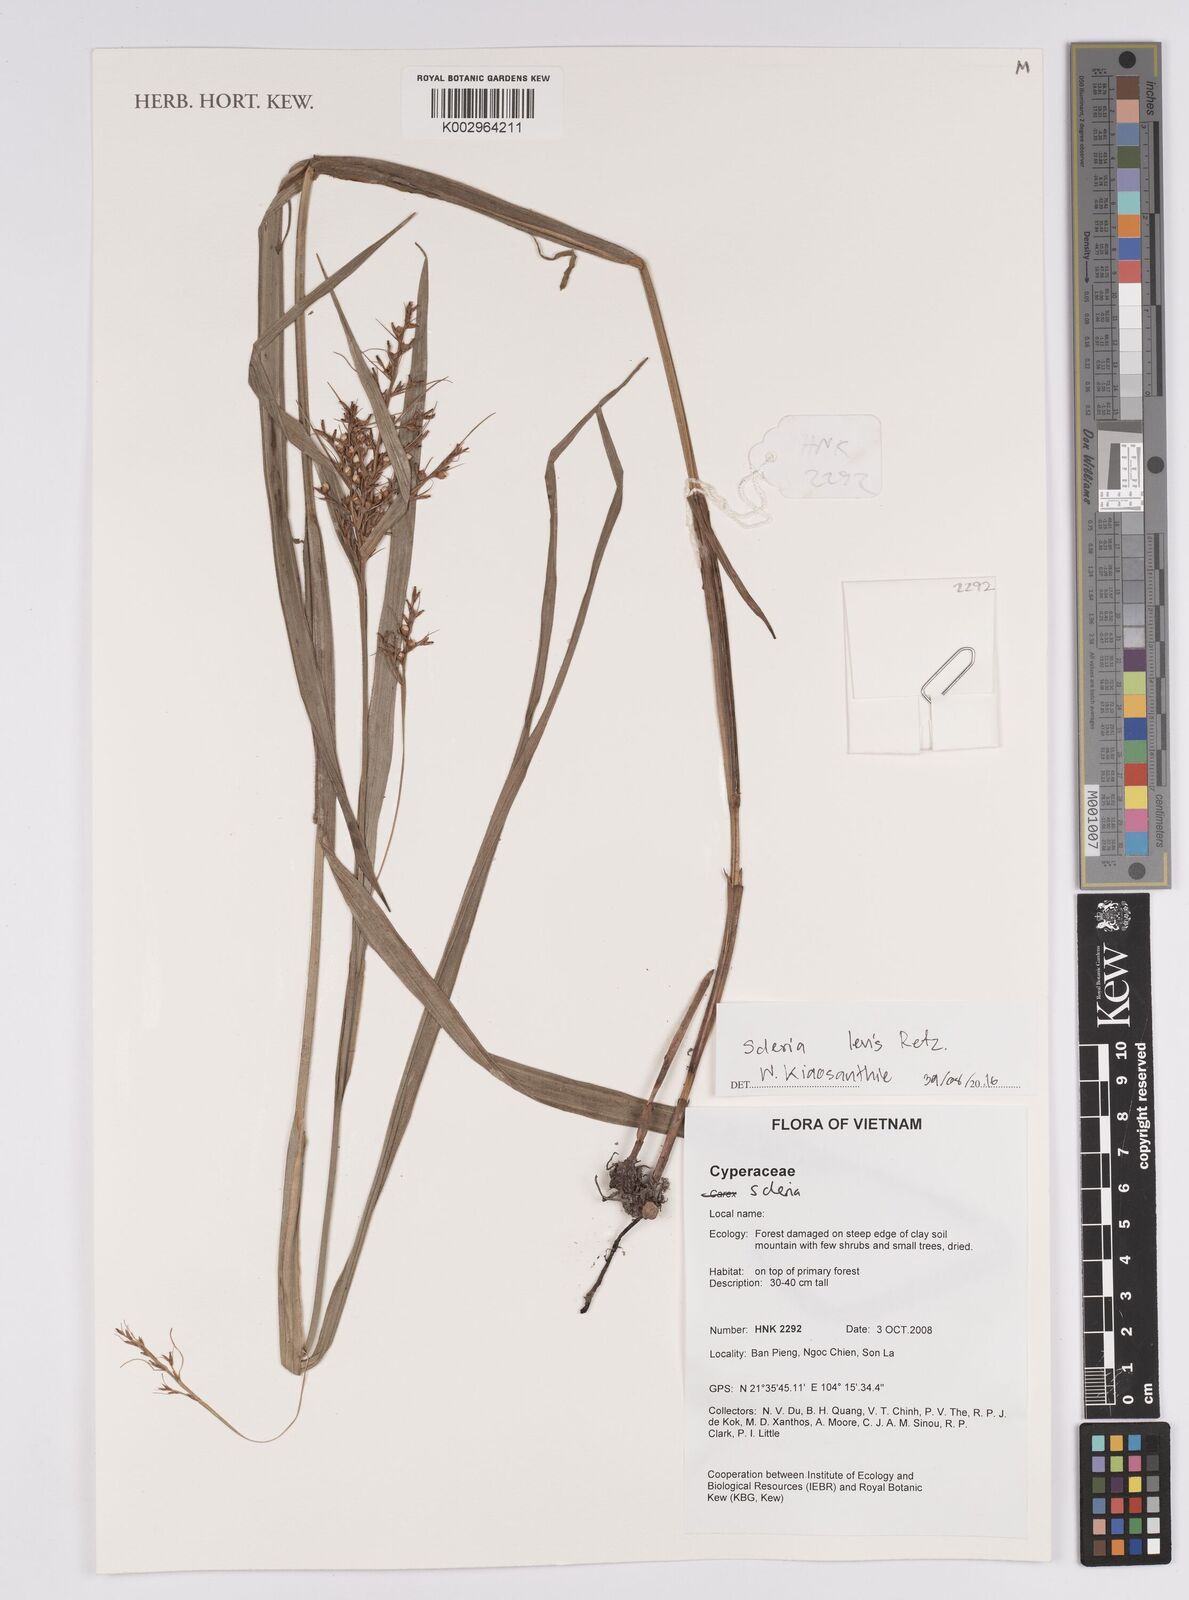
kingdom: Plantae
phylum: Tracheophyta
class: Liliopsida
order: Poales
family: Cyperaceae
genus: Scleria
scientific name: Scleria levis
